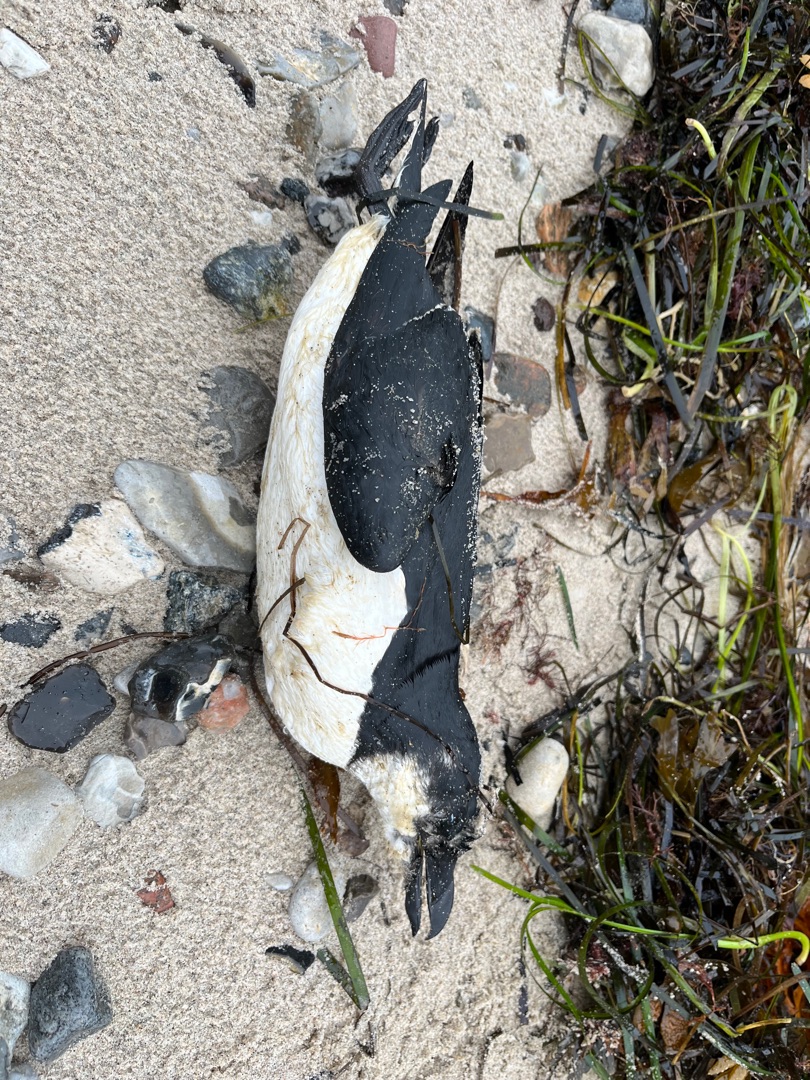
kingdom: Animalia
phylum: Chordata
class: Aves
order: Charadriiformes
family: Alcidae
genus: Alca
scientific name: Alca torda
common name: Alk
